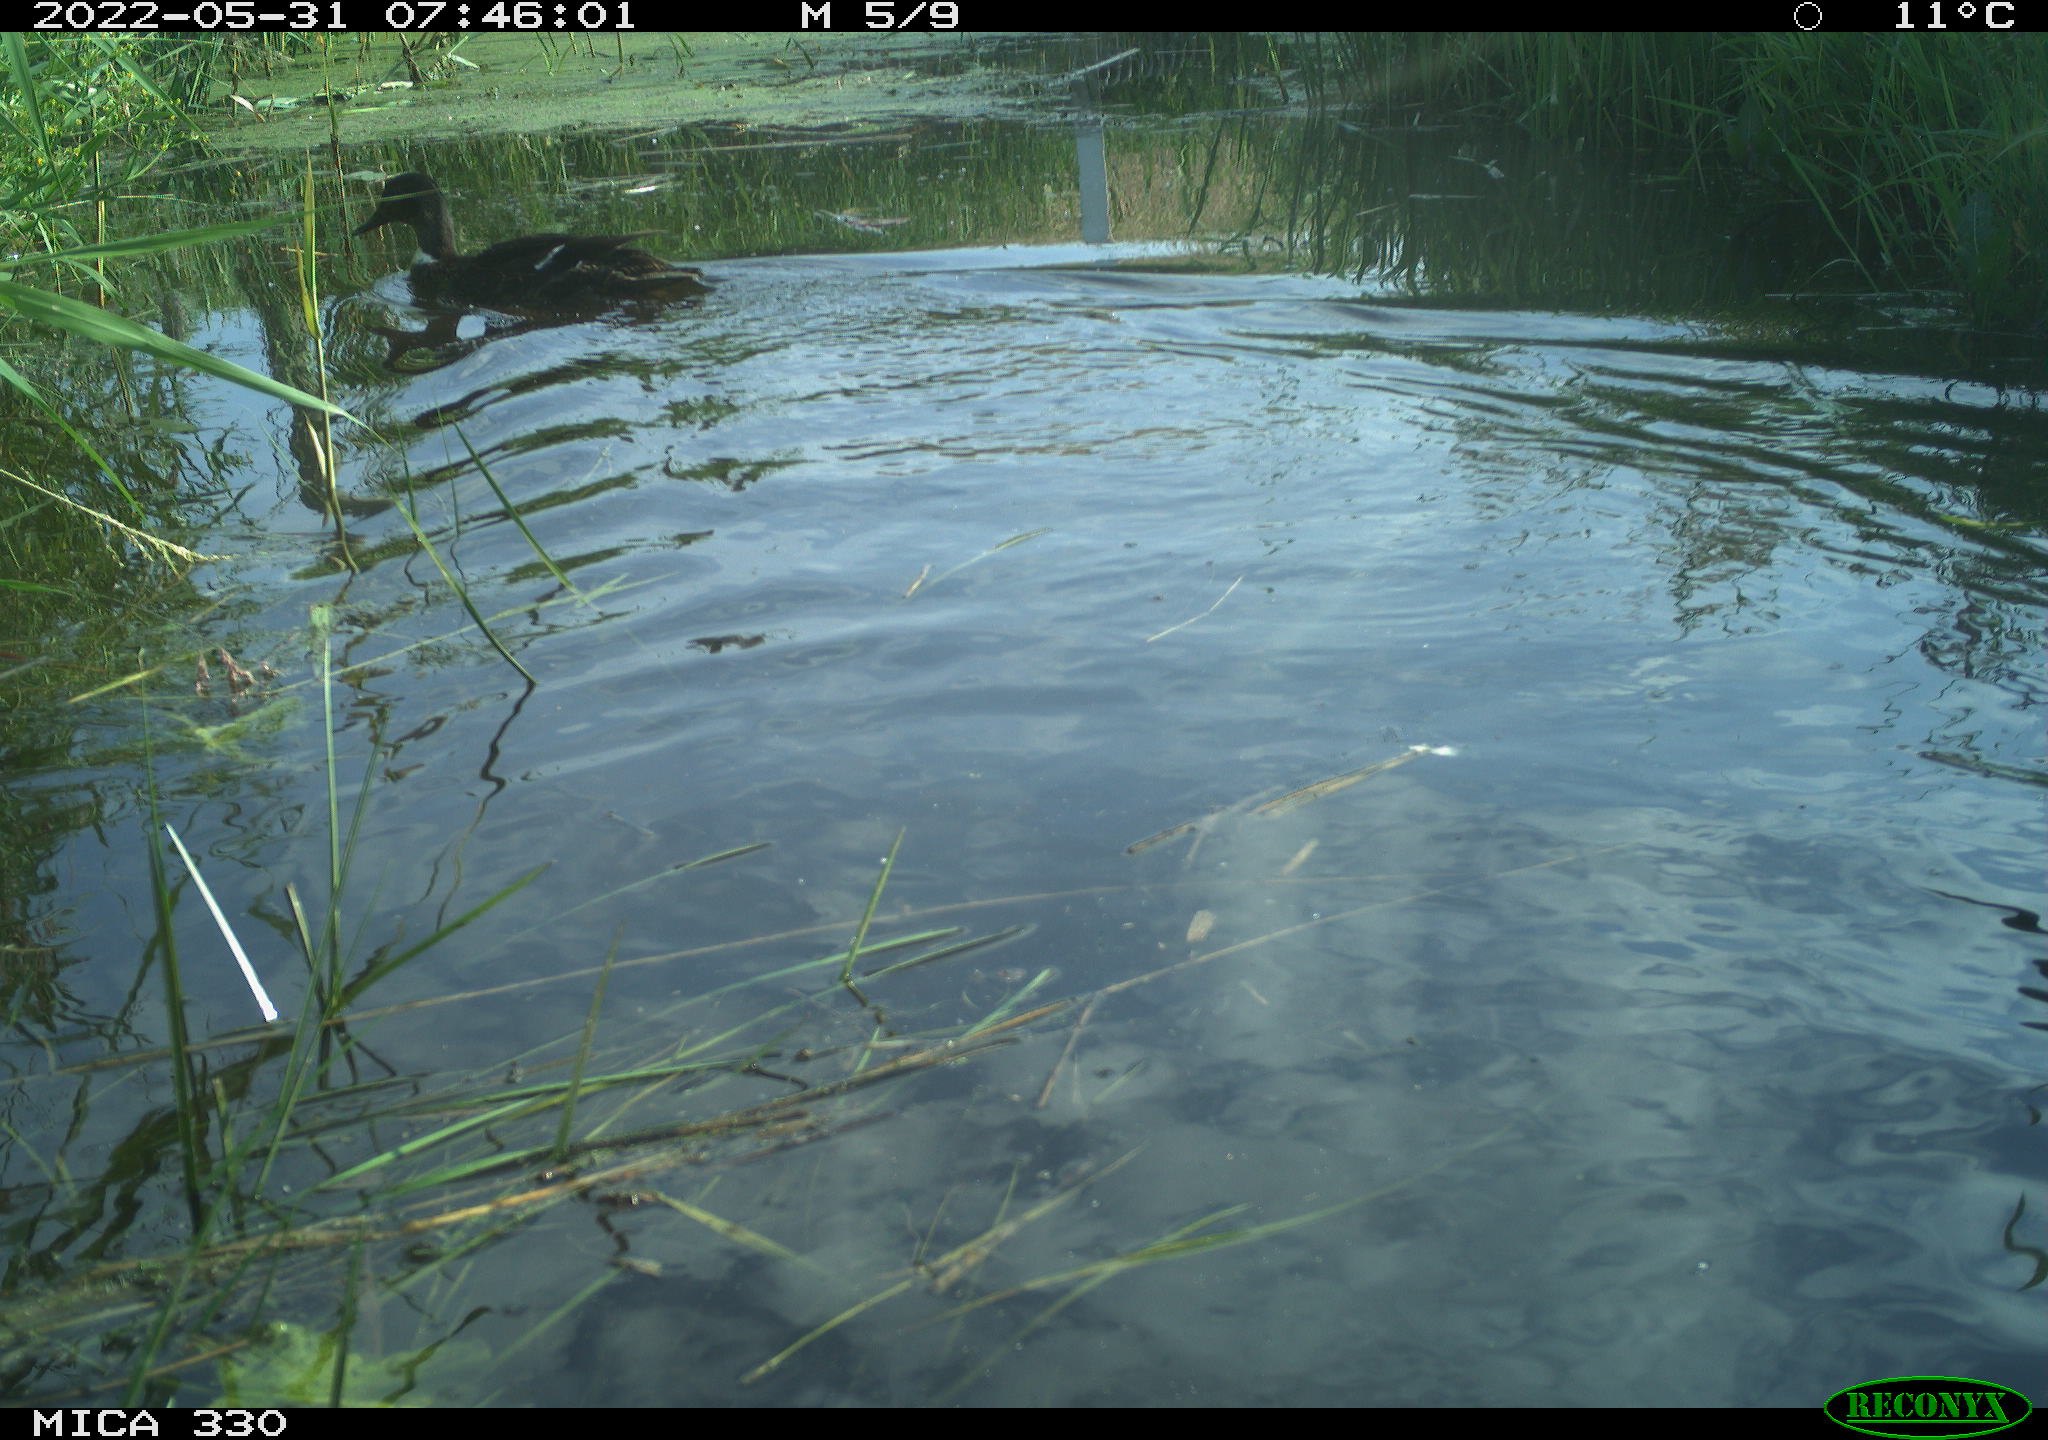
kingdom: Animalia
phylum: Chordata
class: Aves
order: Anseriformes
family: Anatidae
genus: Anas
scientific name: Anas platyrhynchos
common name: Mallard
